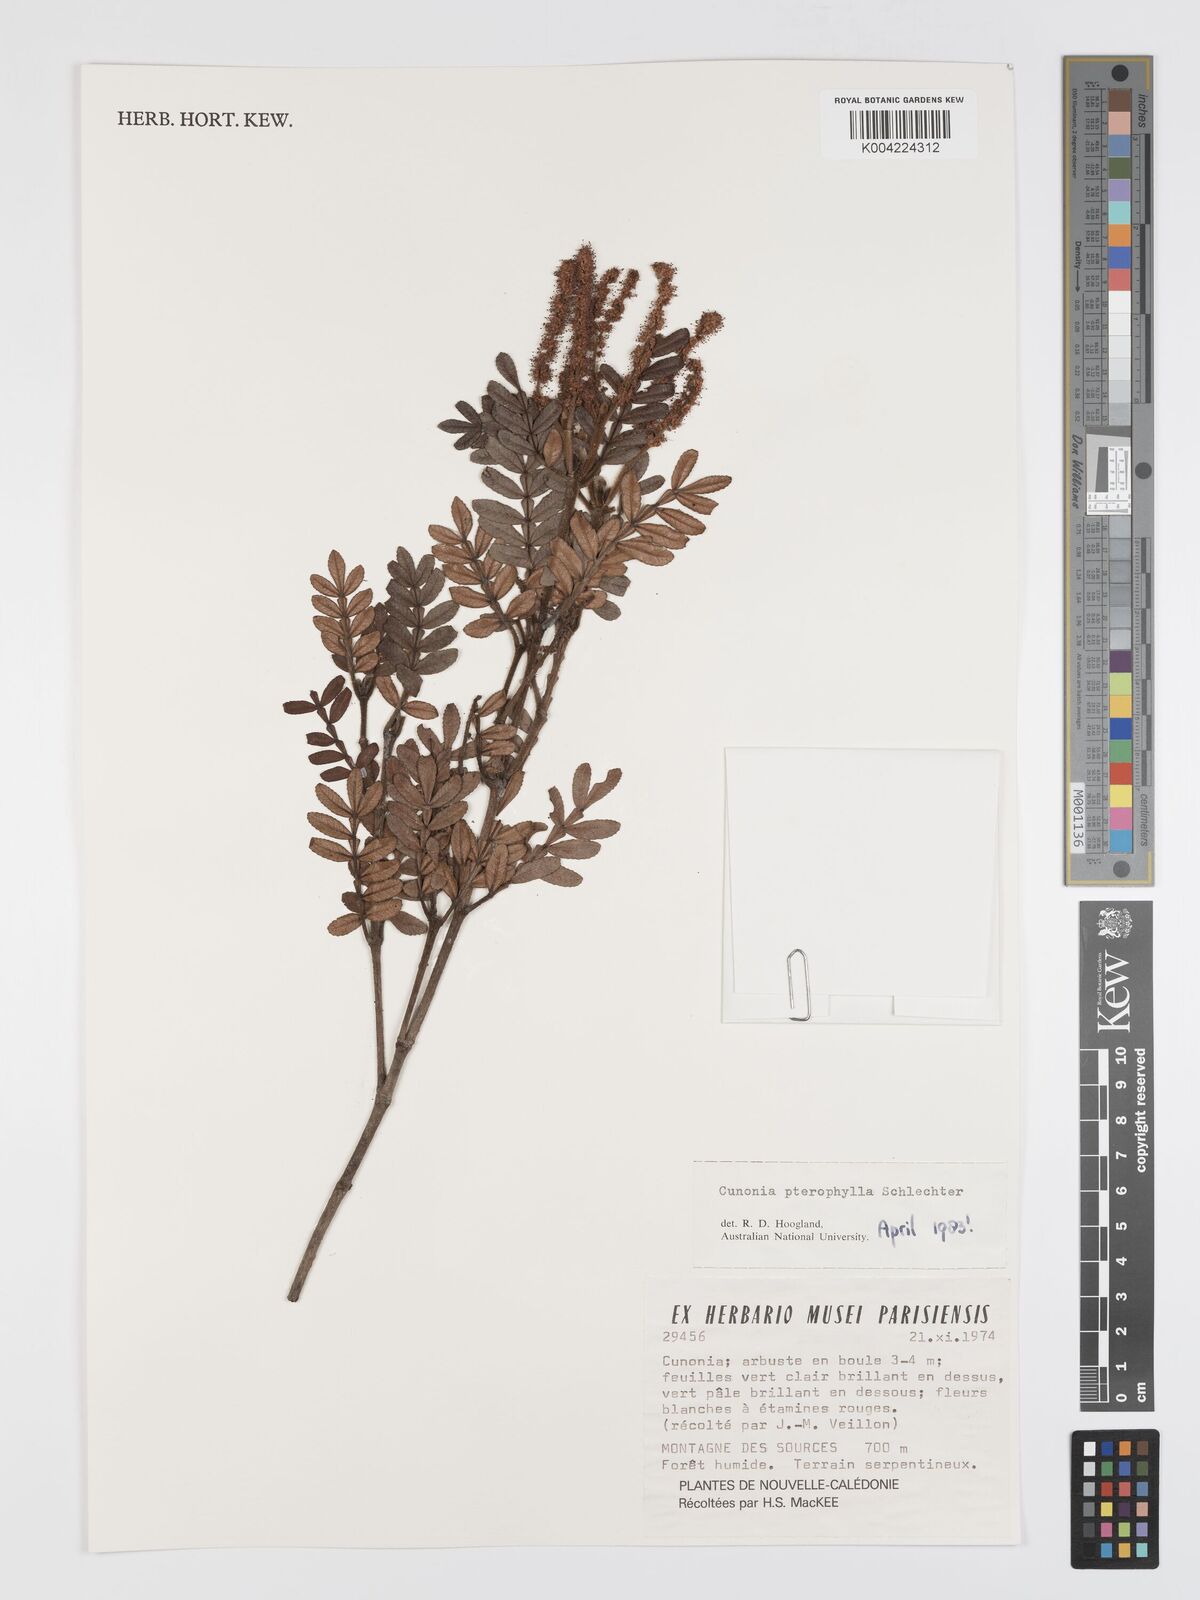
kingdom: Plantae
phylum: Tracheophyta
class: Magnoliopsida
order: Oxalidales
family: Cunoniaceae
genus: Cunonia
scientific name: Cunonia pterophylla
